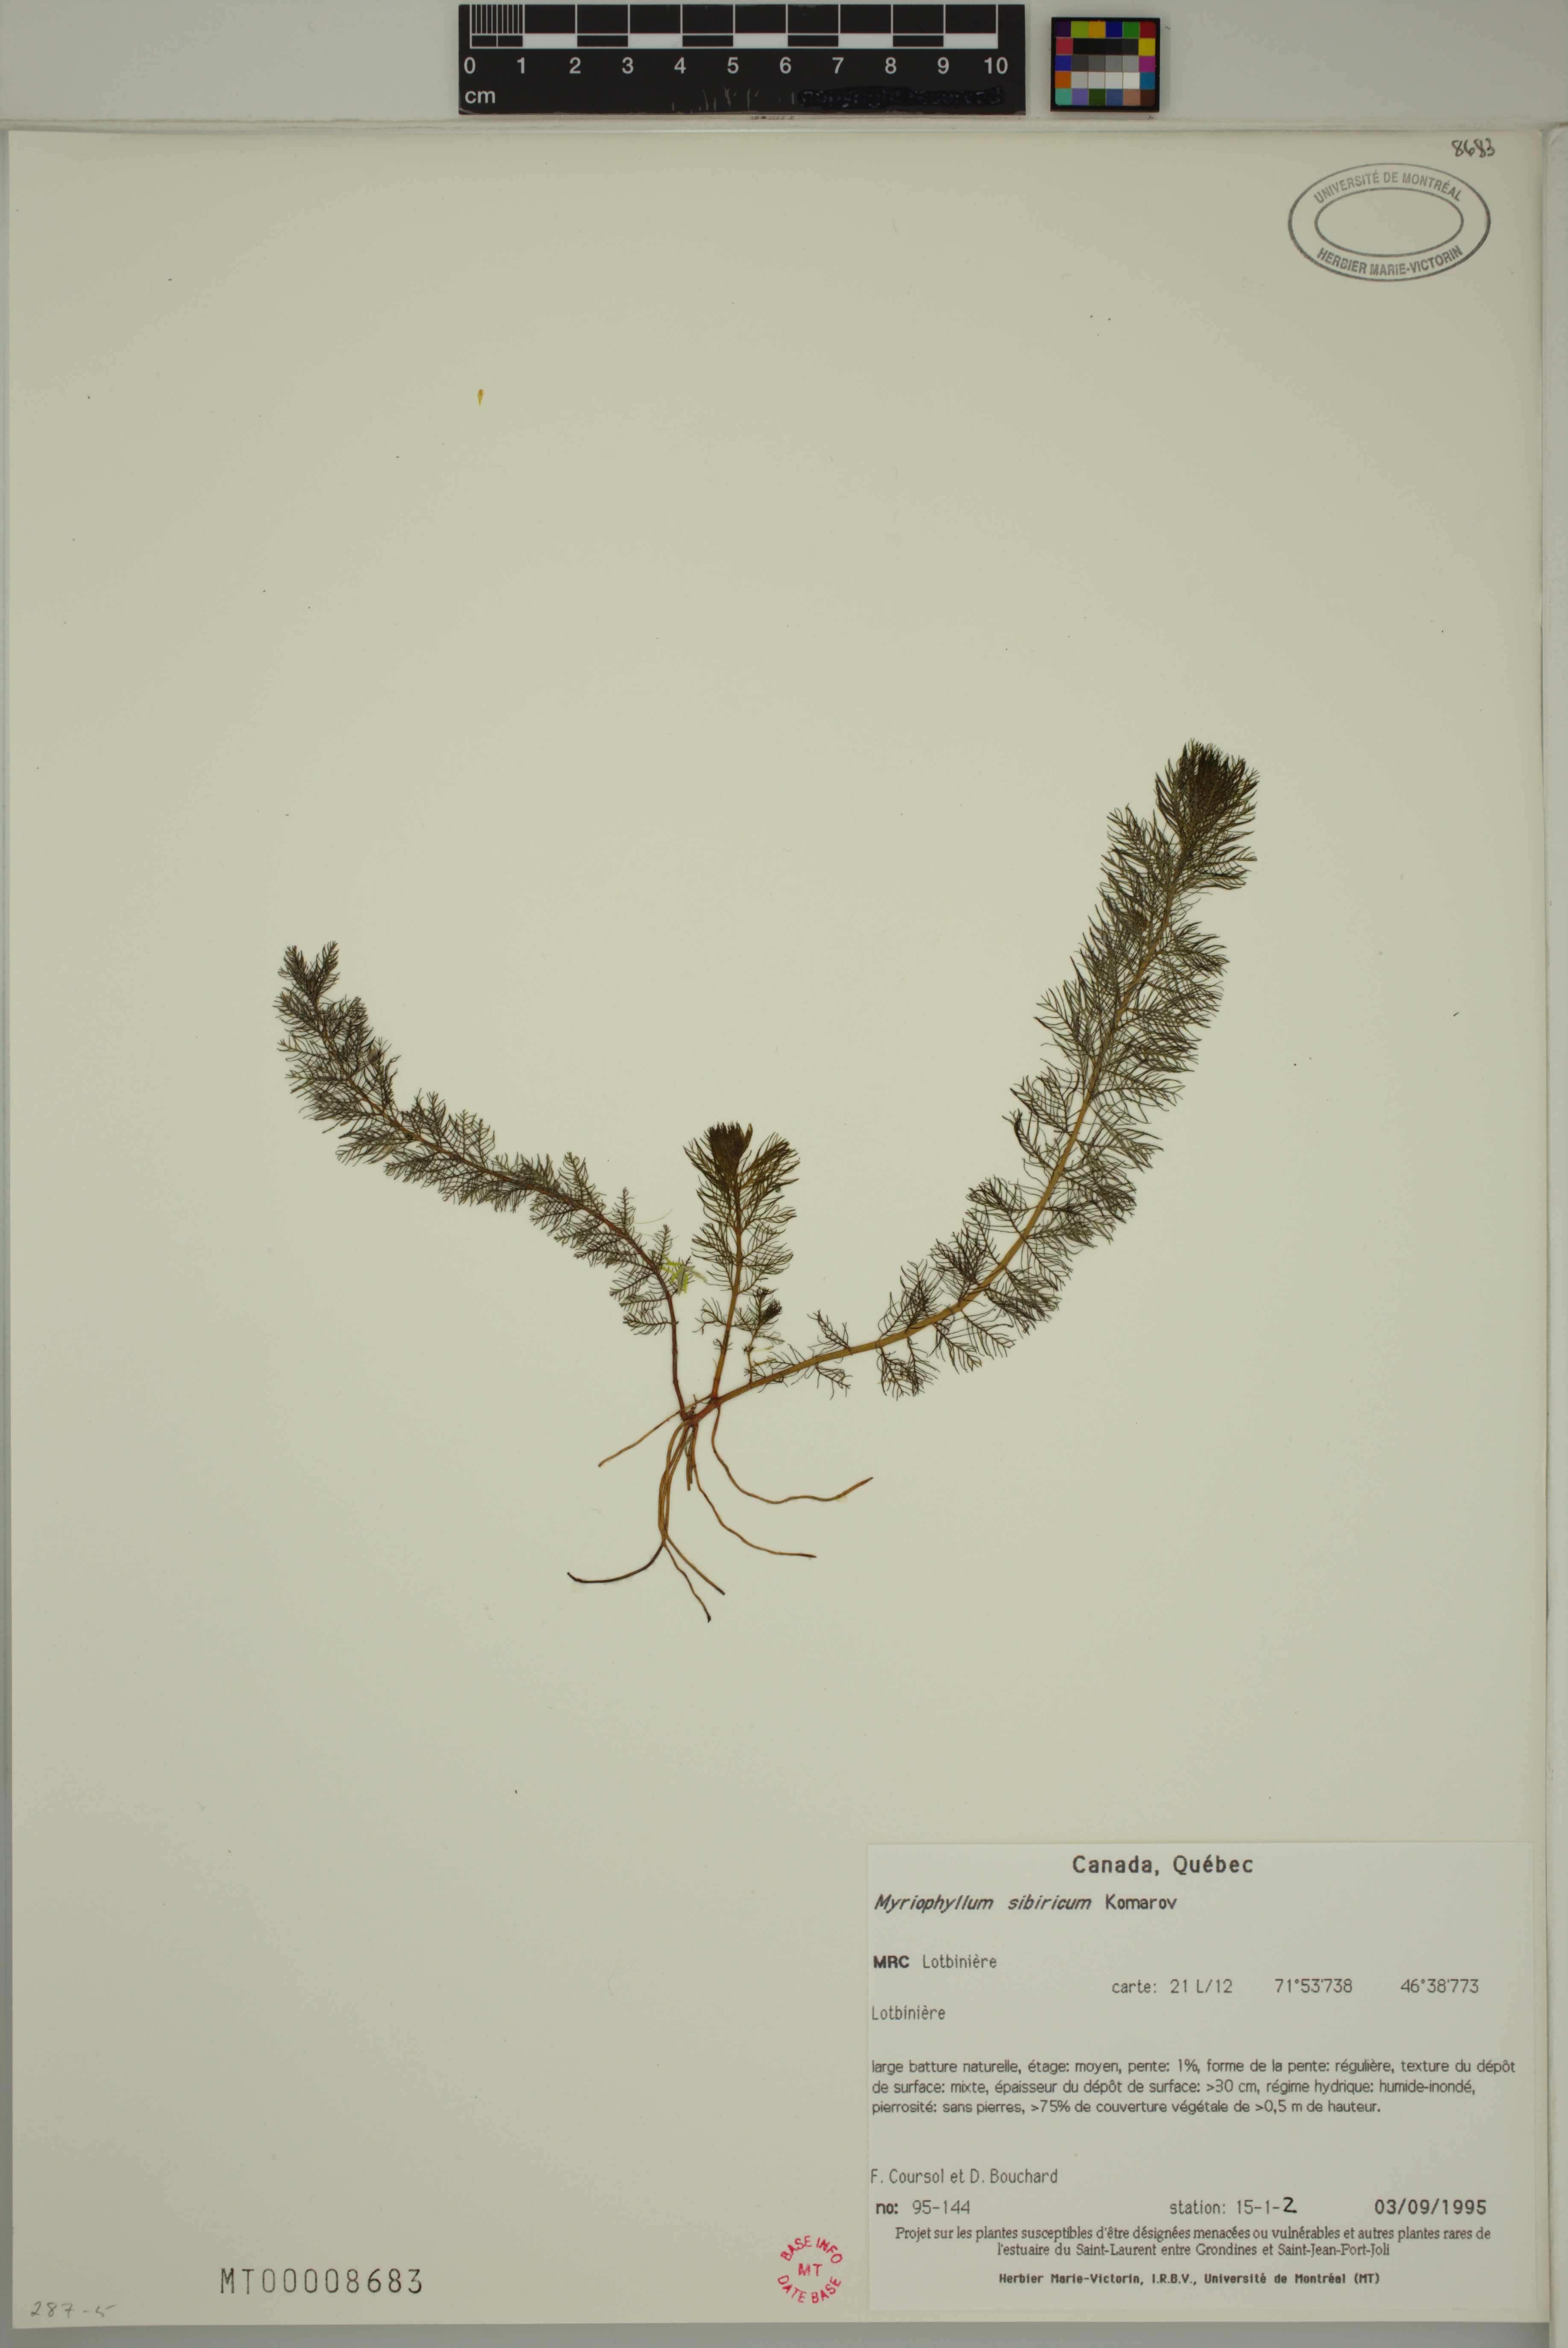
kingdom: Plantae
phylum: Tracheophyta
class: Magnoliopsida
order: Saxifragales
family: Haloragaceae
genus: Myriophyllum
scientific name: Myriophyllum sibiricum
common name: Siberian water-milfoil
